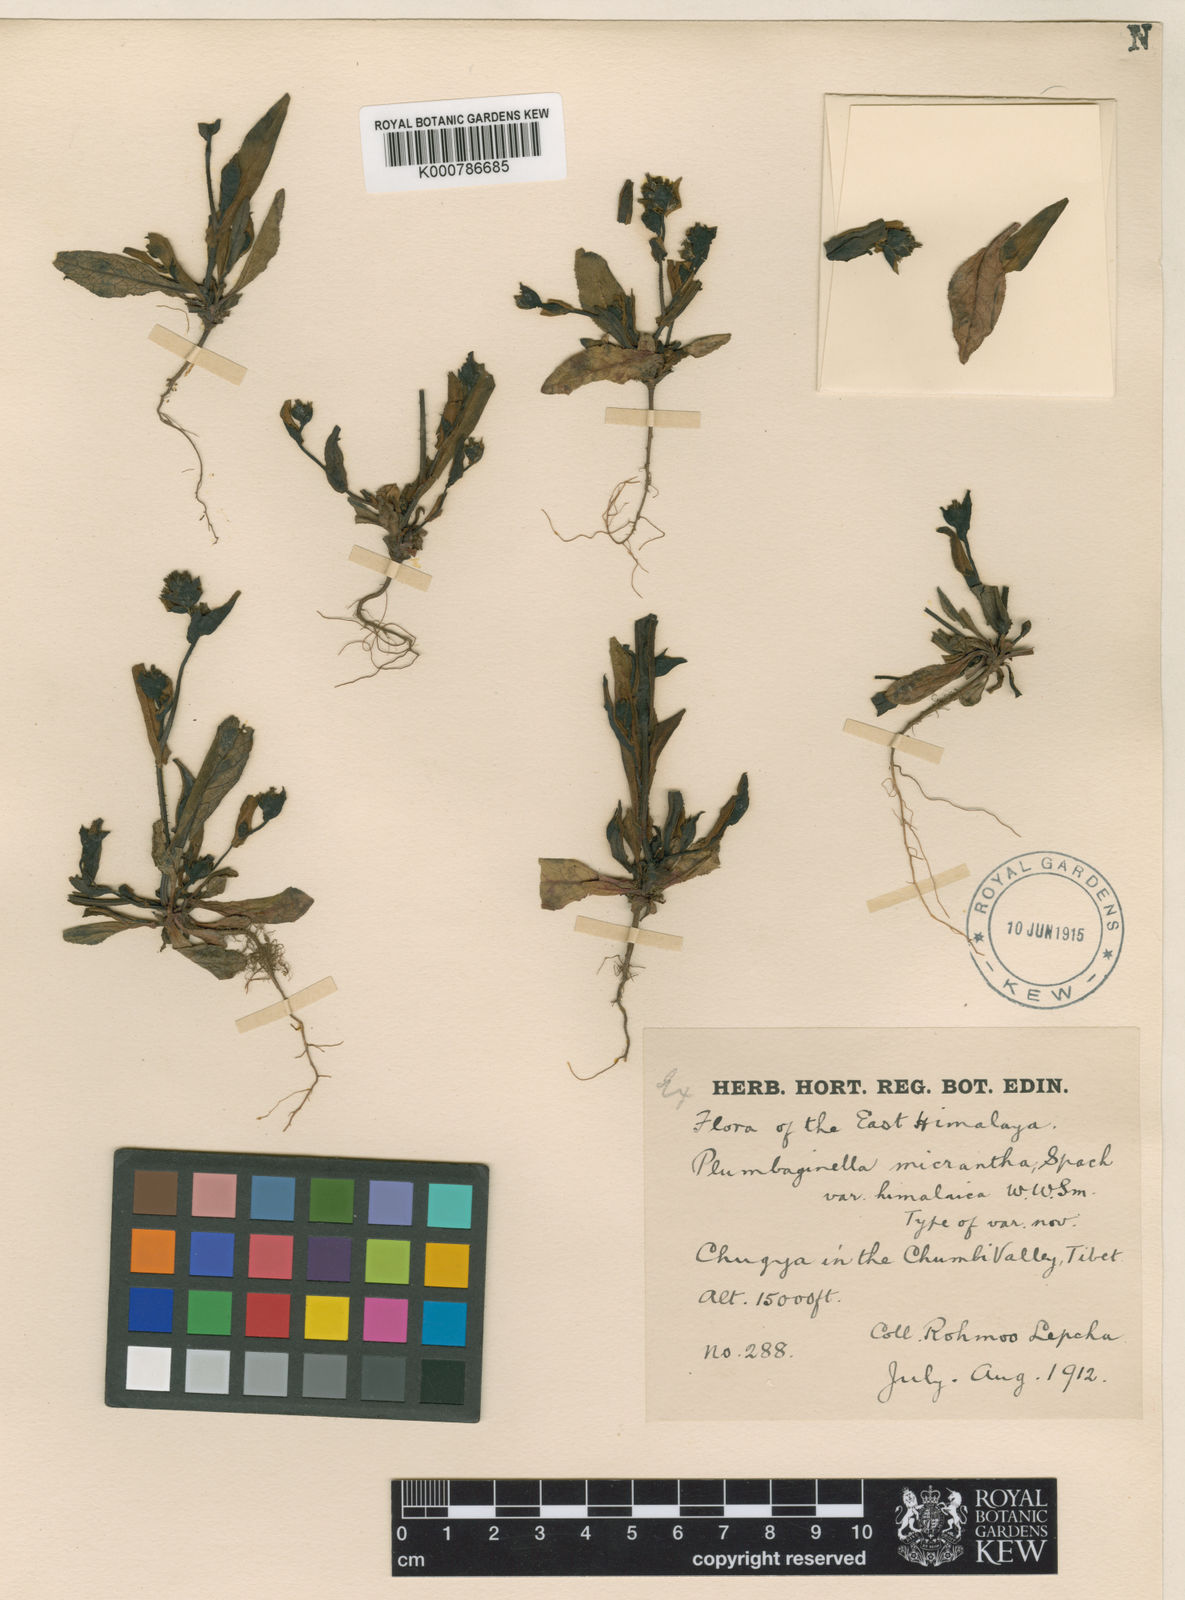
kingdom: Plantae
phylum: Tracheophyta
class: Magnoliopsida
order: Caryophyllales
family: Plumbaginaceae
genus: Plumbagella
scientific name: Plumbagella micrantha
